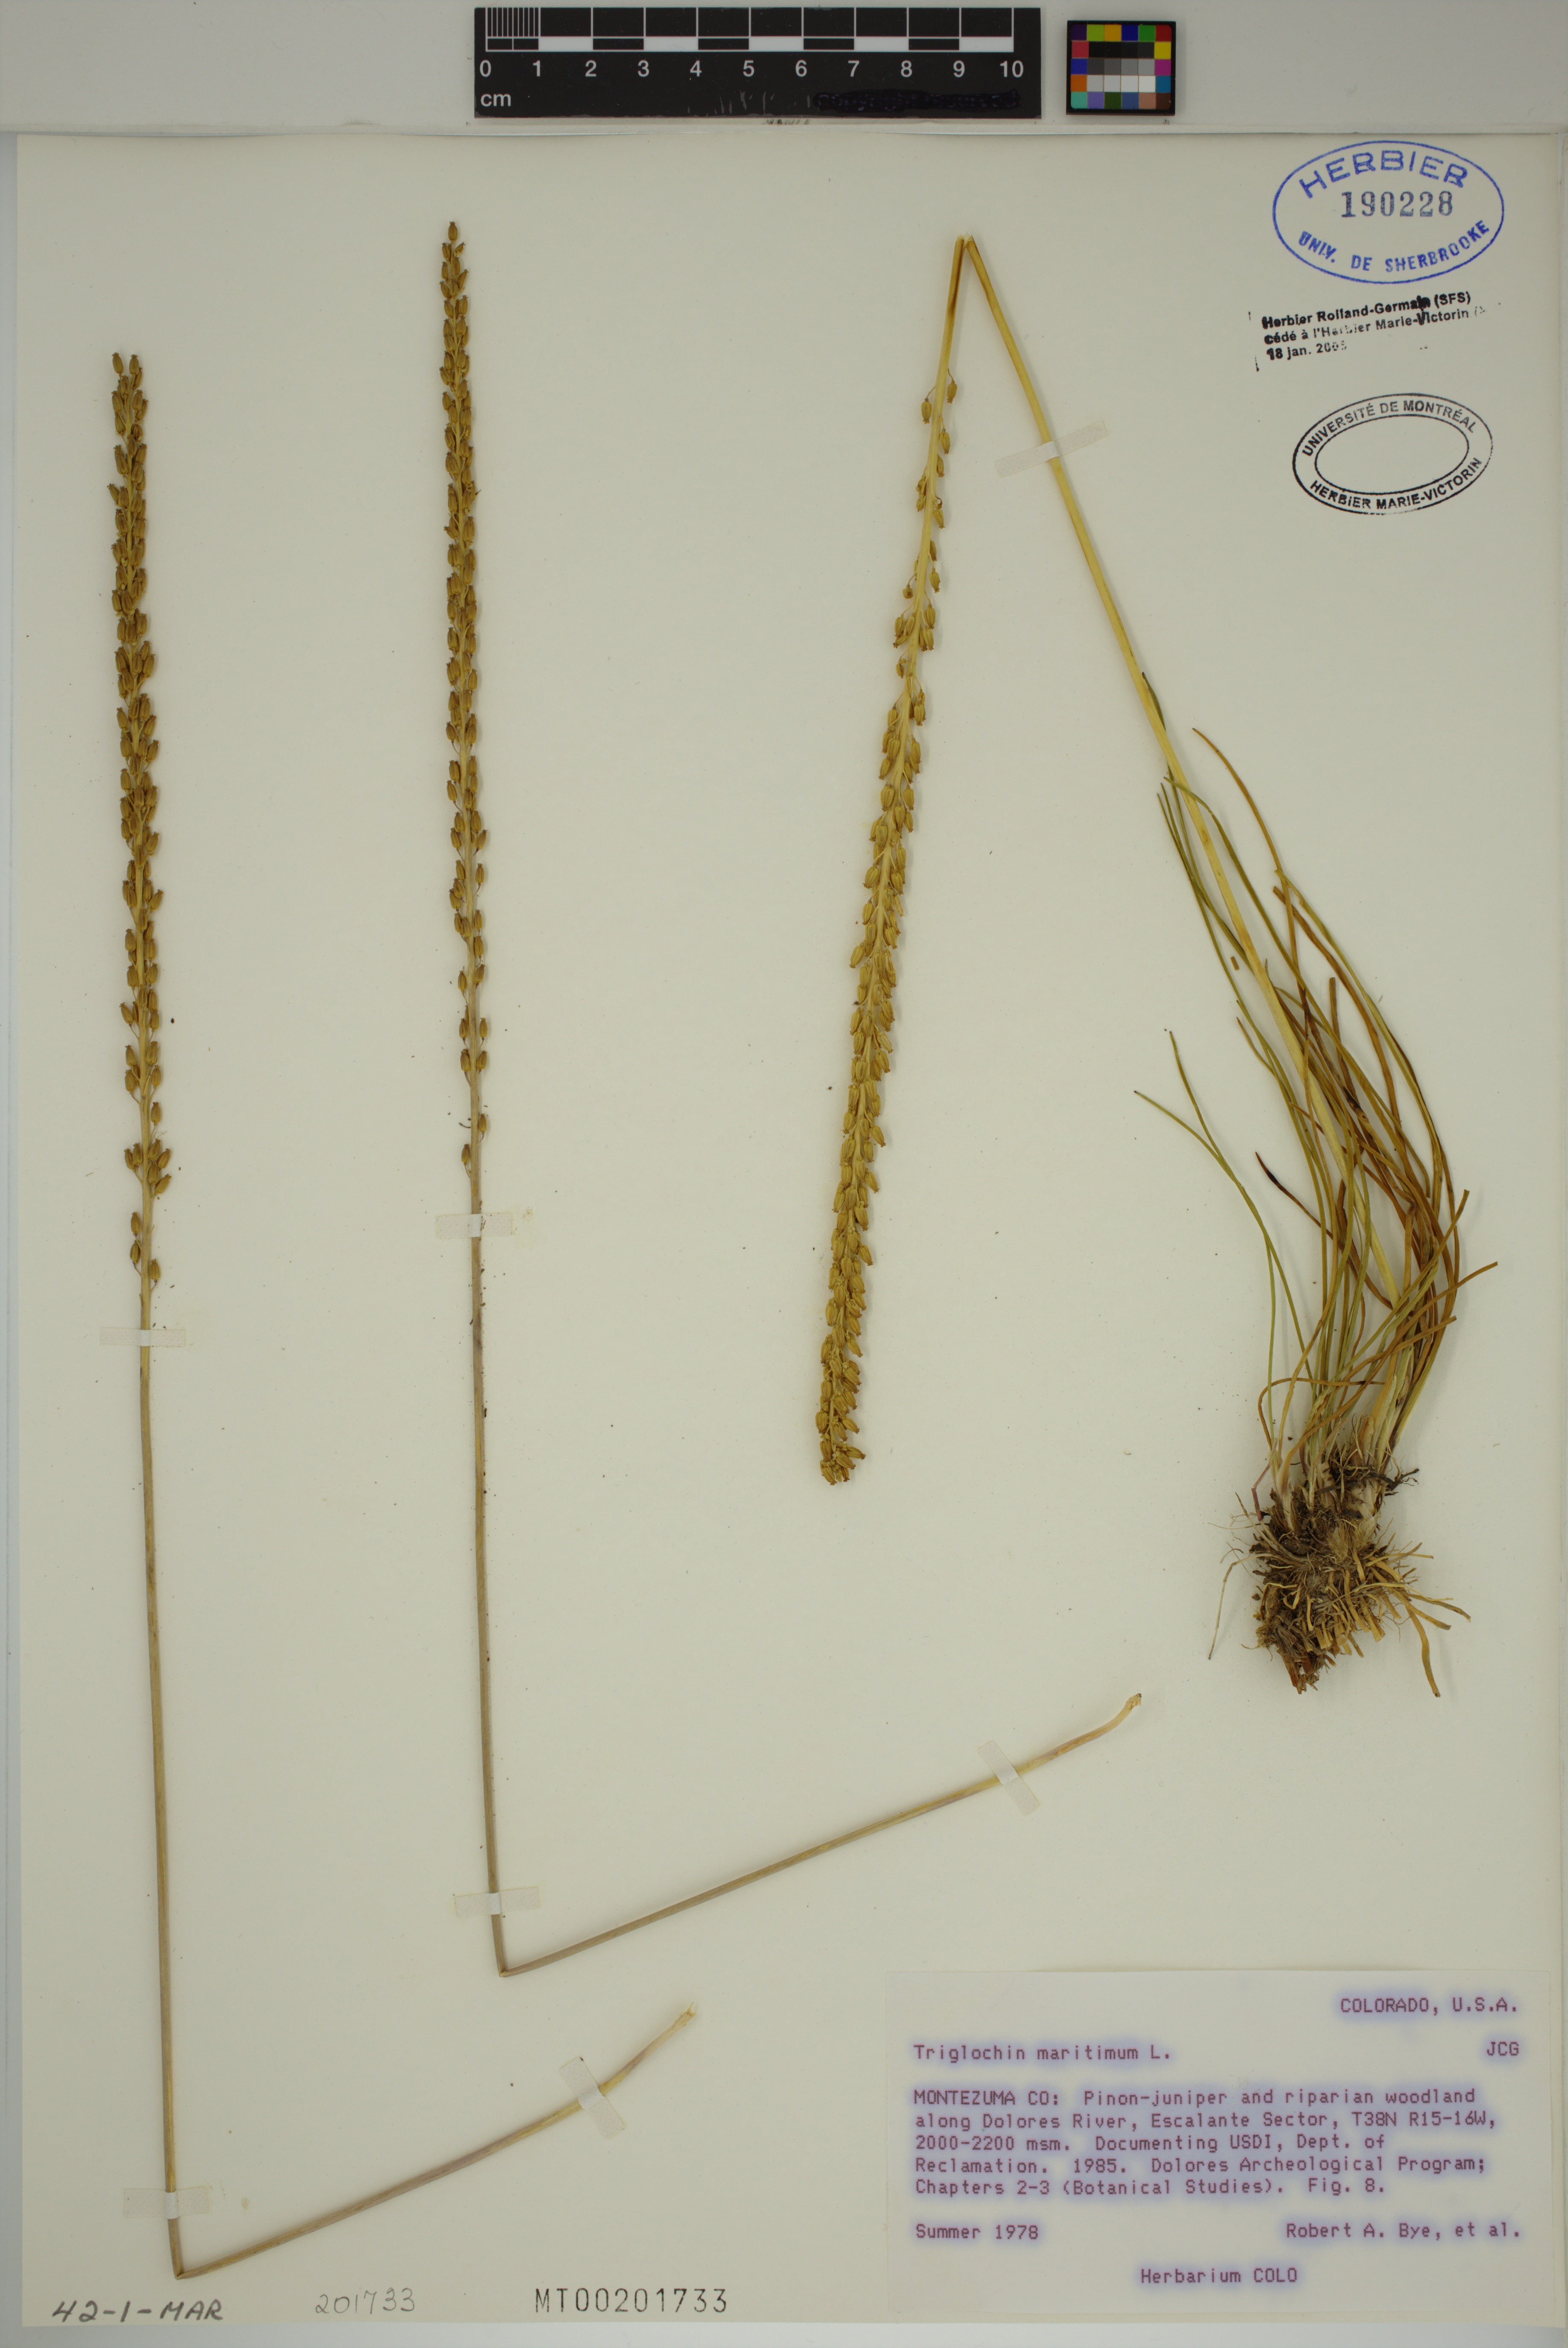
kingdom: Plantae
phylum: Tracheophyta
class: Liliopsida
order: Alismatales
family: Juncaginaceae
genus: Triglochin
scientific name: Triglochin maritima
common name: Sea arrowgrass
